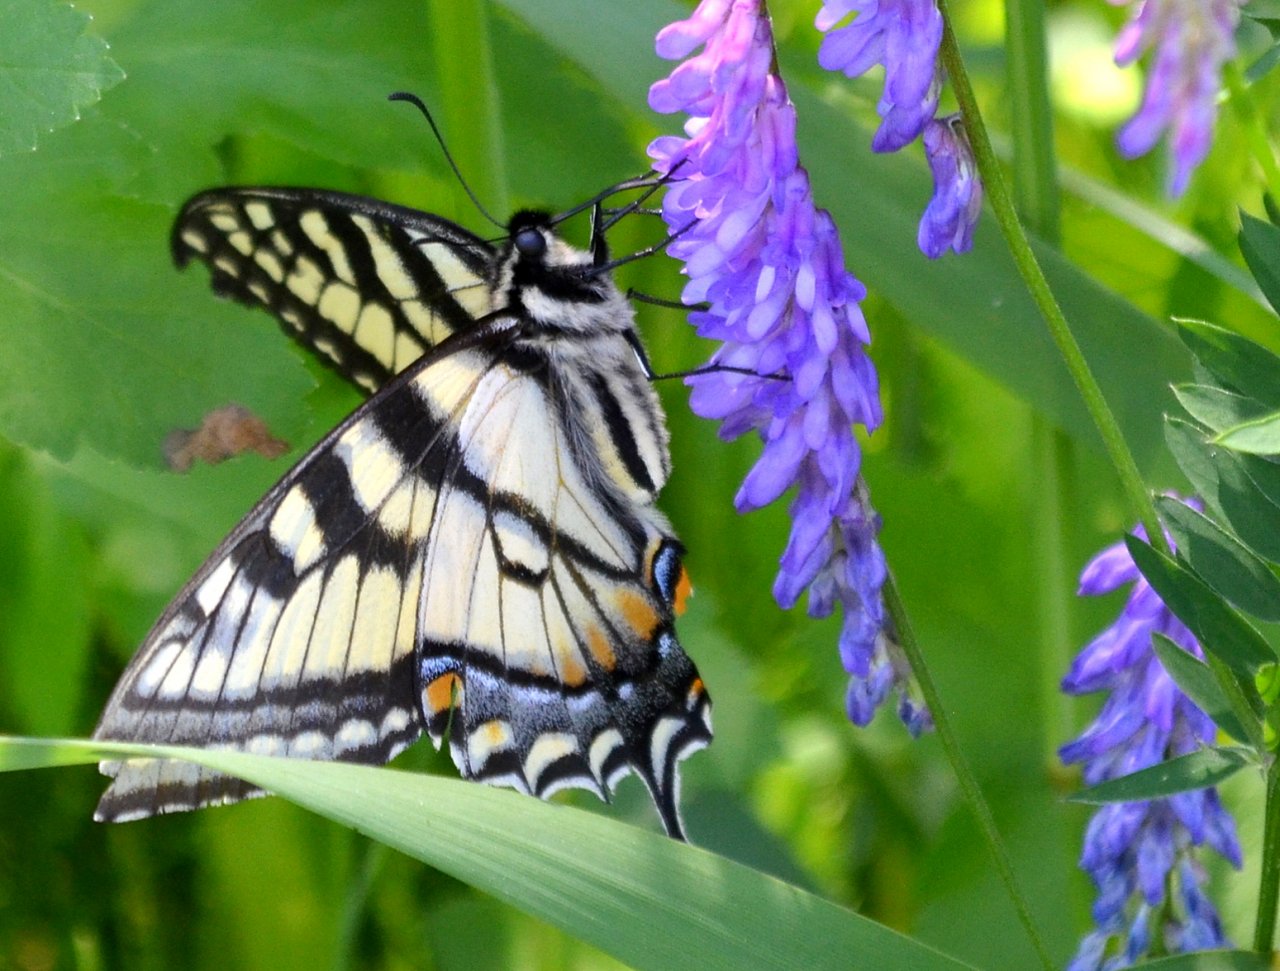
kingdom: Animalia
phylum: Arthropoda
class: Insecta
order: Lepidoptera
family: Papilionidae
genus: Pterourus
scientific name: Pterourus canadensis
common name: Canadian Tiger Swallowtail
